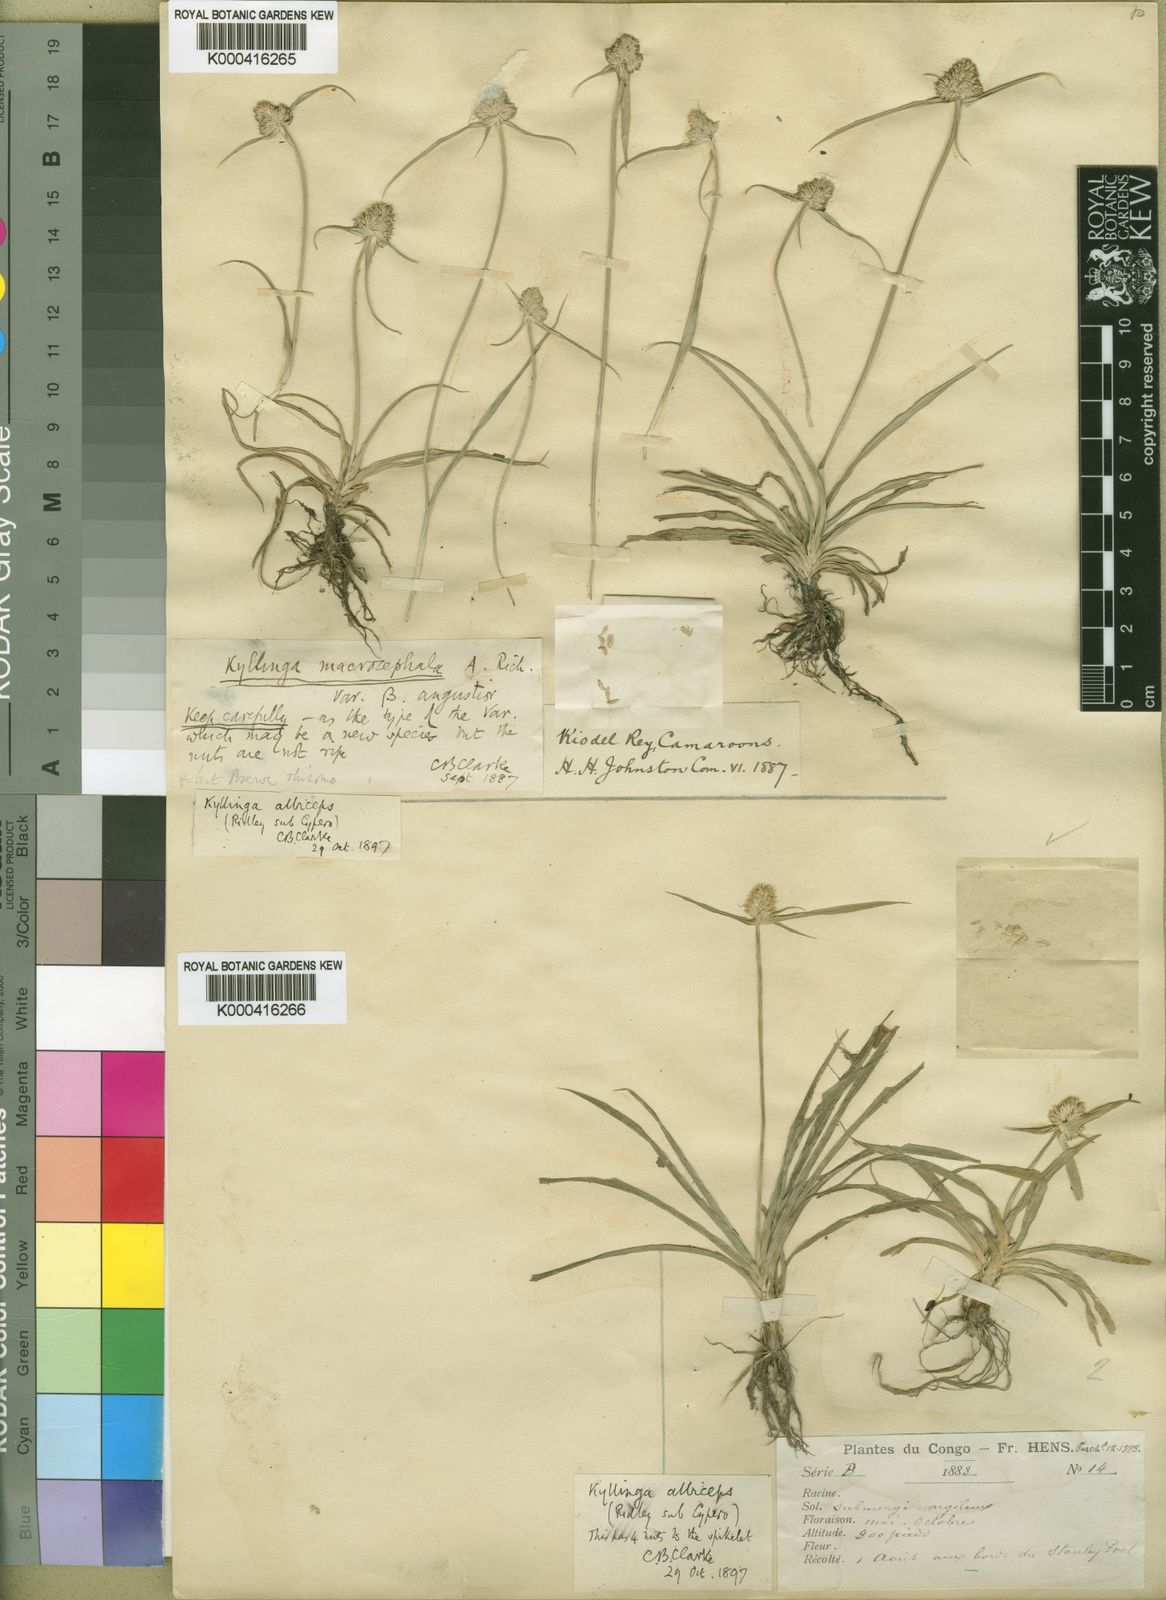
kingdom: Plantae
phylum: Tracheophyta
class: Liliopsida
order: Poales
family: Cyperaceae
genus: Cyperus
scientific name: Cyperus richardii
